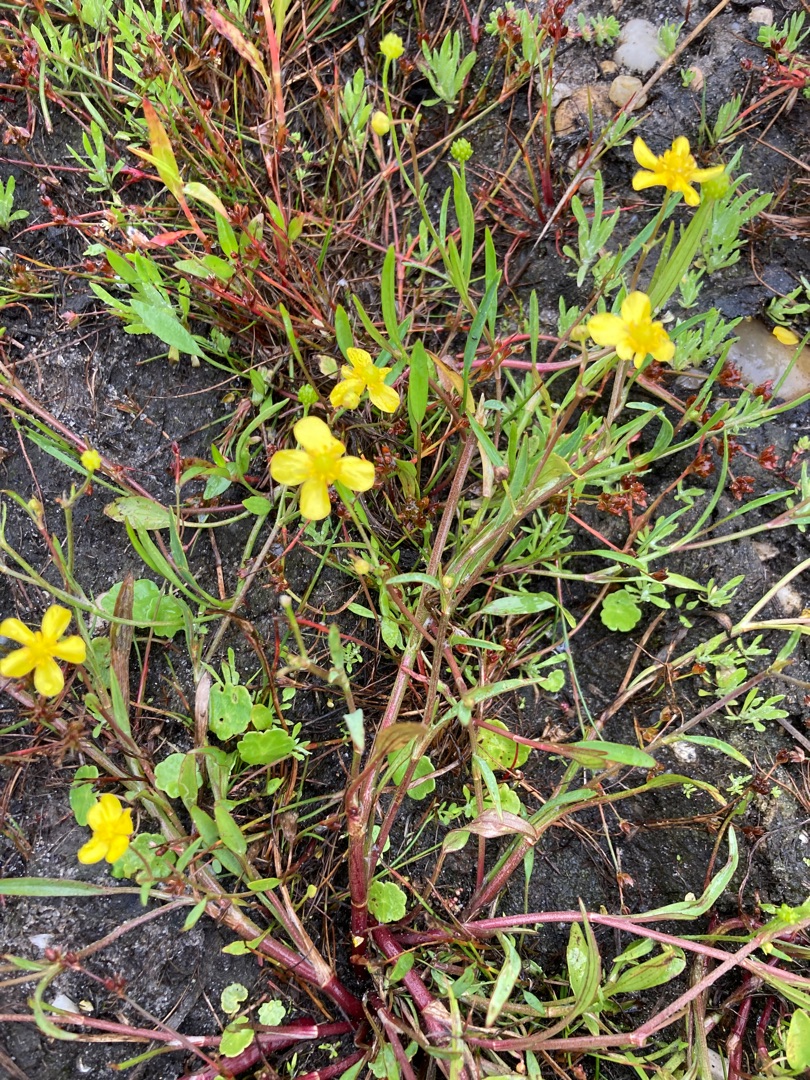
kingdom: Plantae
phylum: Tracheophyta
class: Magnoliopsida
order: Ranunculales
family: Ranunculaceae
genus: Ranunculus
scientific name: Ranunculus flammula
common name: Kær-ranunkel
